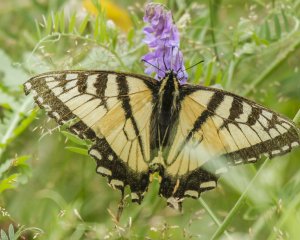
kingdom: Animalia
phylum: Arthropoda
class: Insecta
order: Lepidoptera
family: Papilionidae
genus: Pterourus
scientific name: Pterourus canadensis
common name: Canadian Tiger Swallowtail
